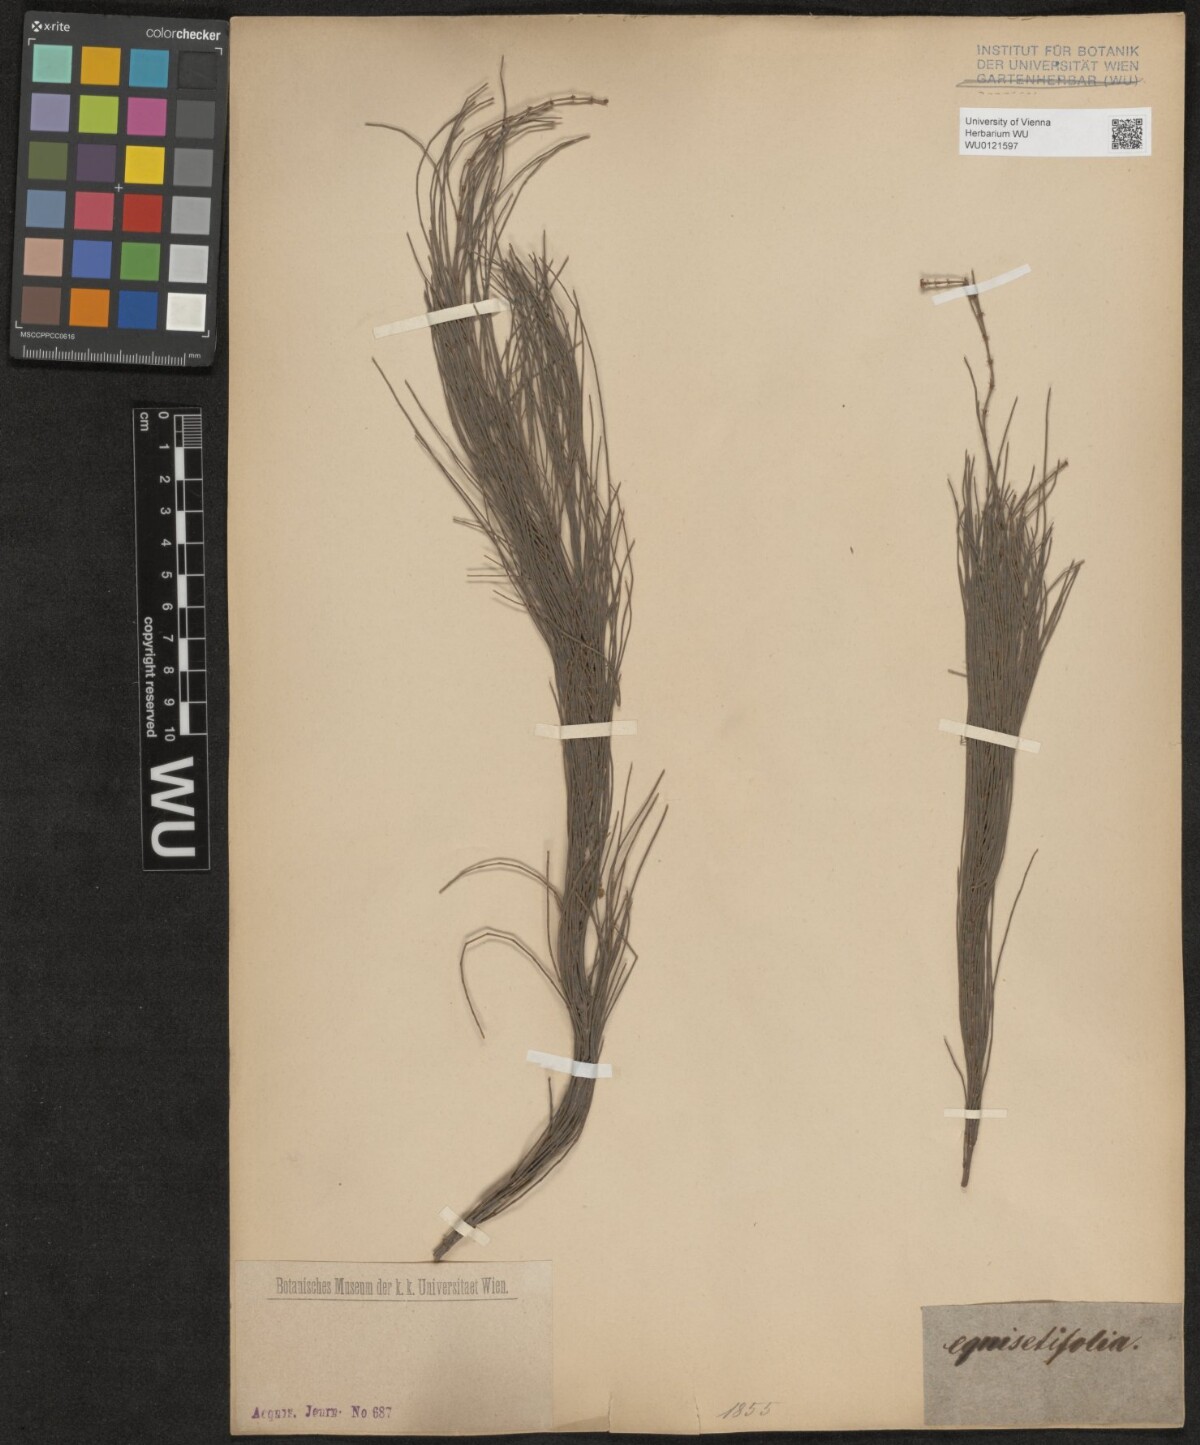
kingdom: Plantae
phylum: Tracheophyta
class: Magnoliopsida
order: Fagales
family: Casuarinaceae
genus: Casuarina
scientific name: Casuarina equisetifolia
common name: Beach sheoak
